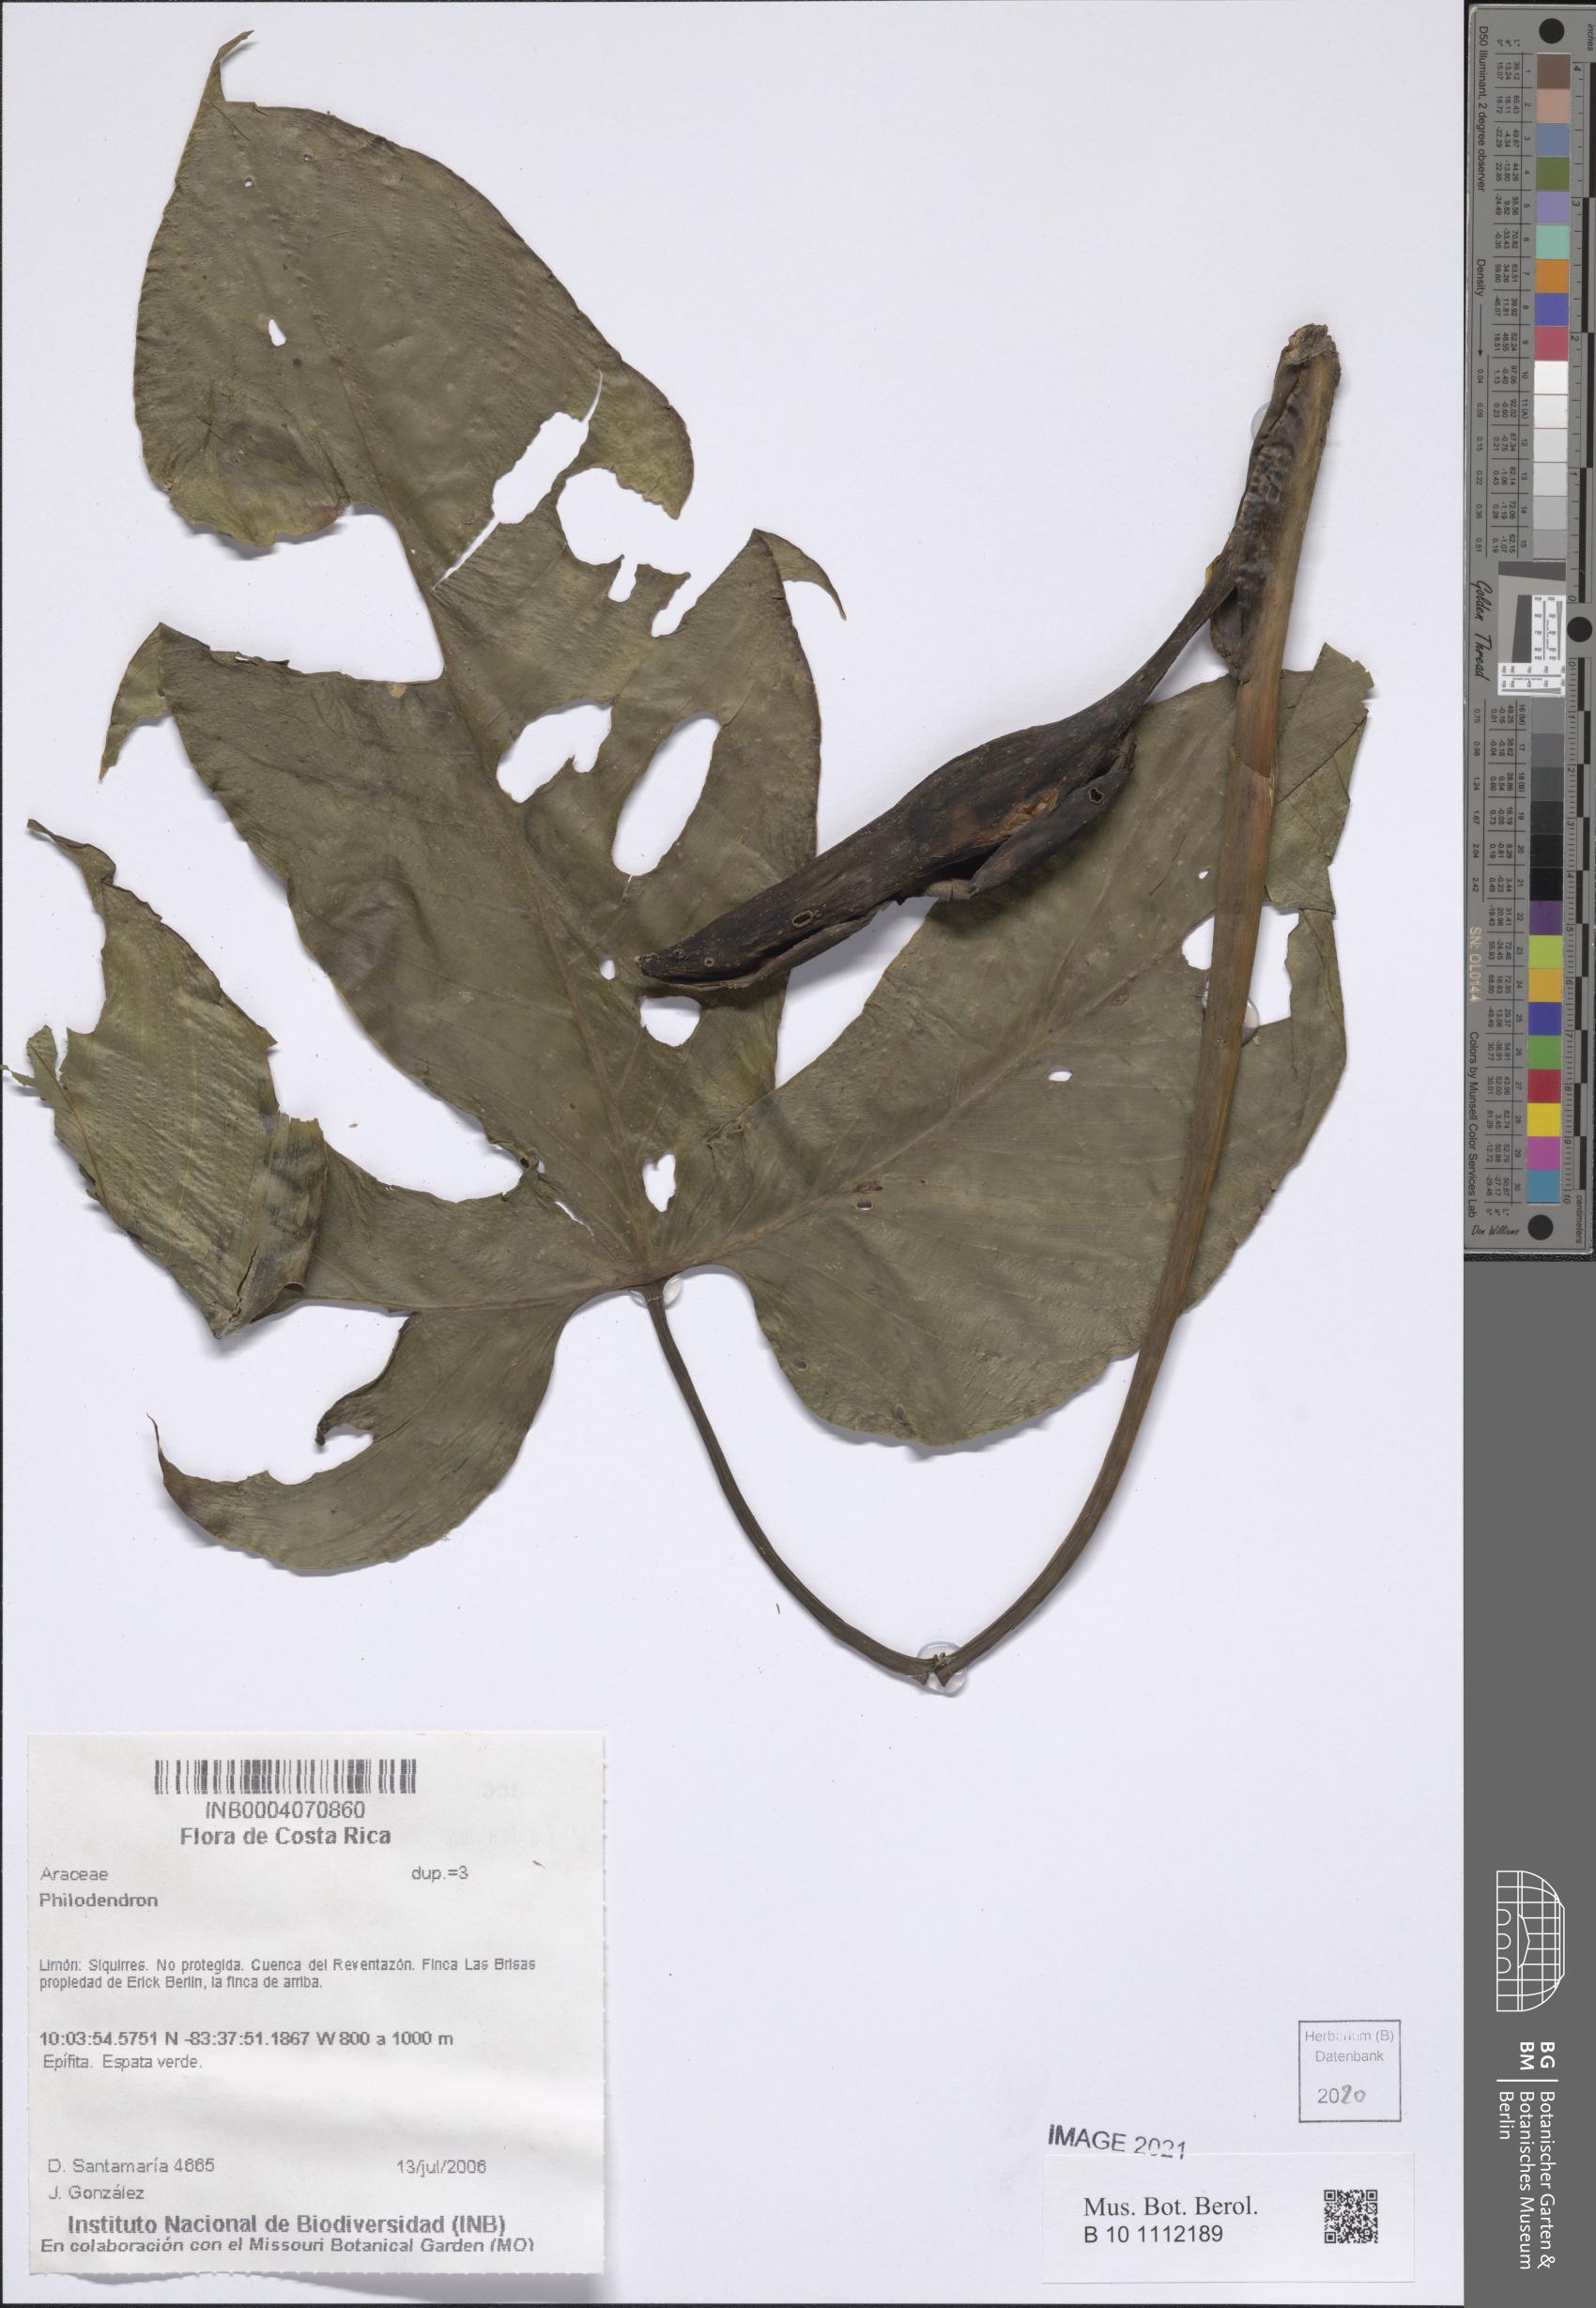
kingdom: Plantae
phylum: Tracheophyta
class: Liliopsida
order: Alismatales
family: Araceae
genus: Philodendron
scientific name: Philodendron
